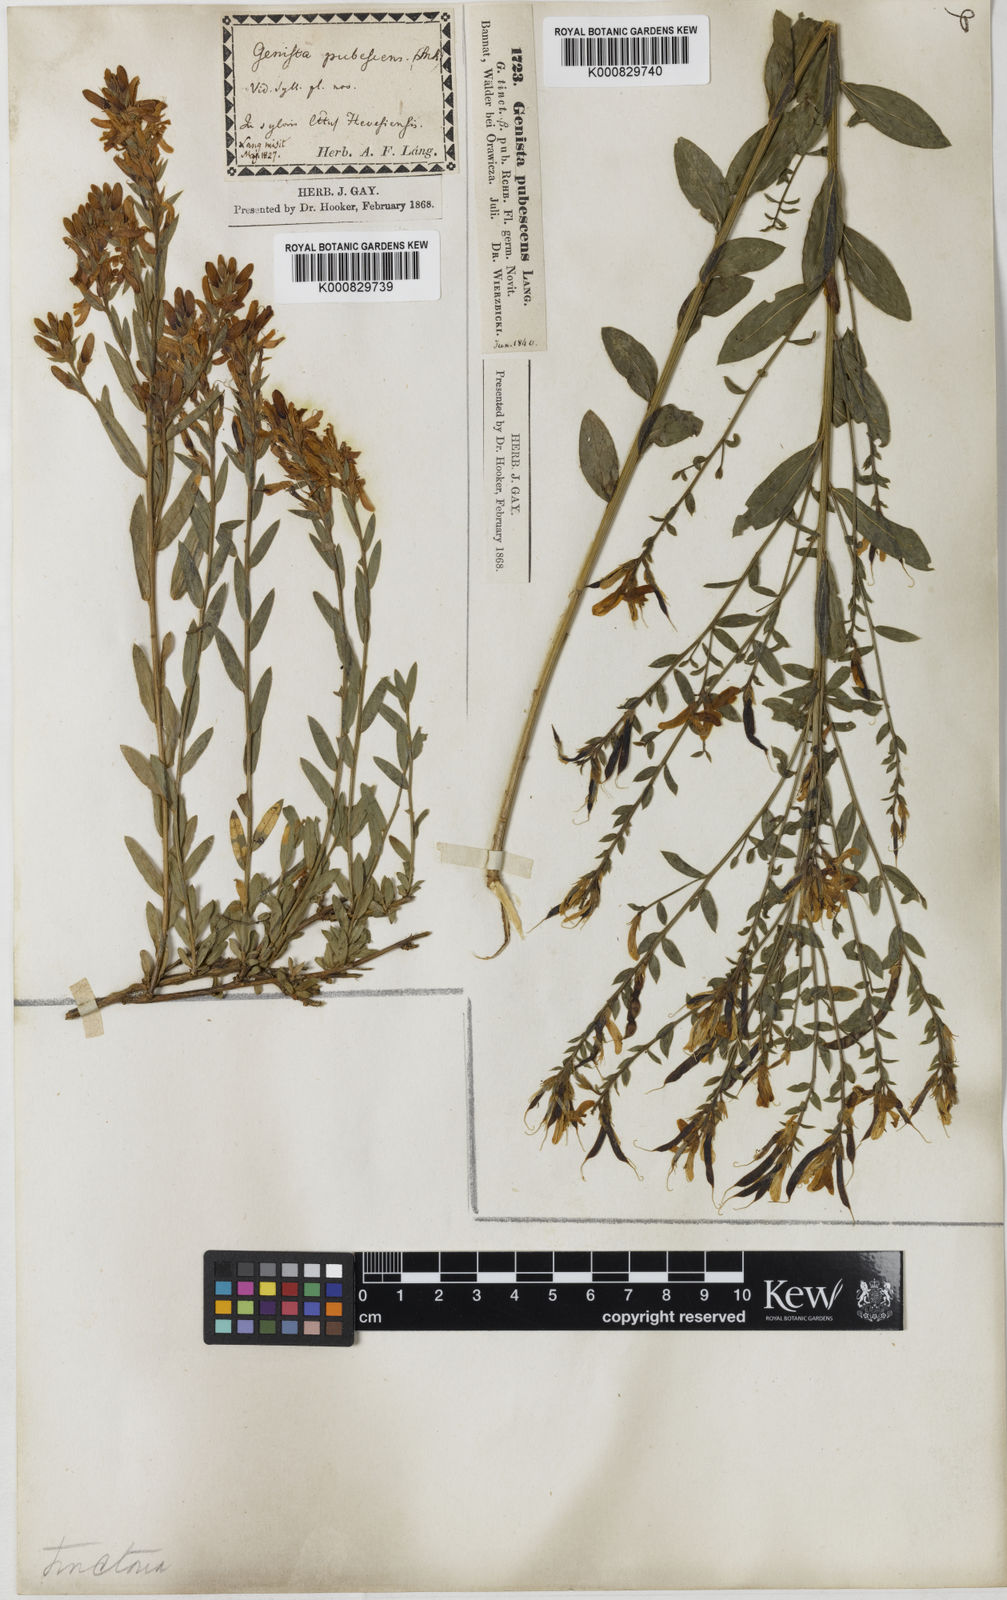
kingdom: Plantae
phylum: Tracheophyta
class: Magnoliopsida
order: Fabales
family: Fabaceae
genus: Genista
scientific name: Genista tinctoria
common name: Dyer's greenweed
